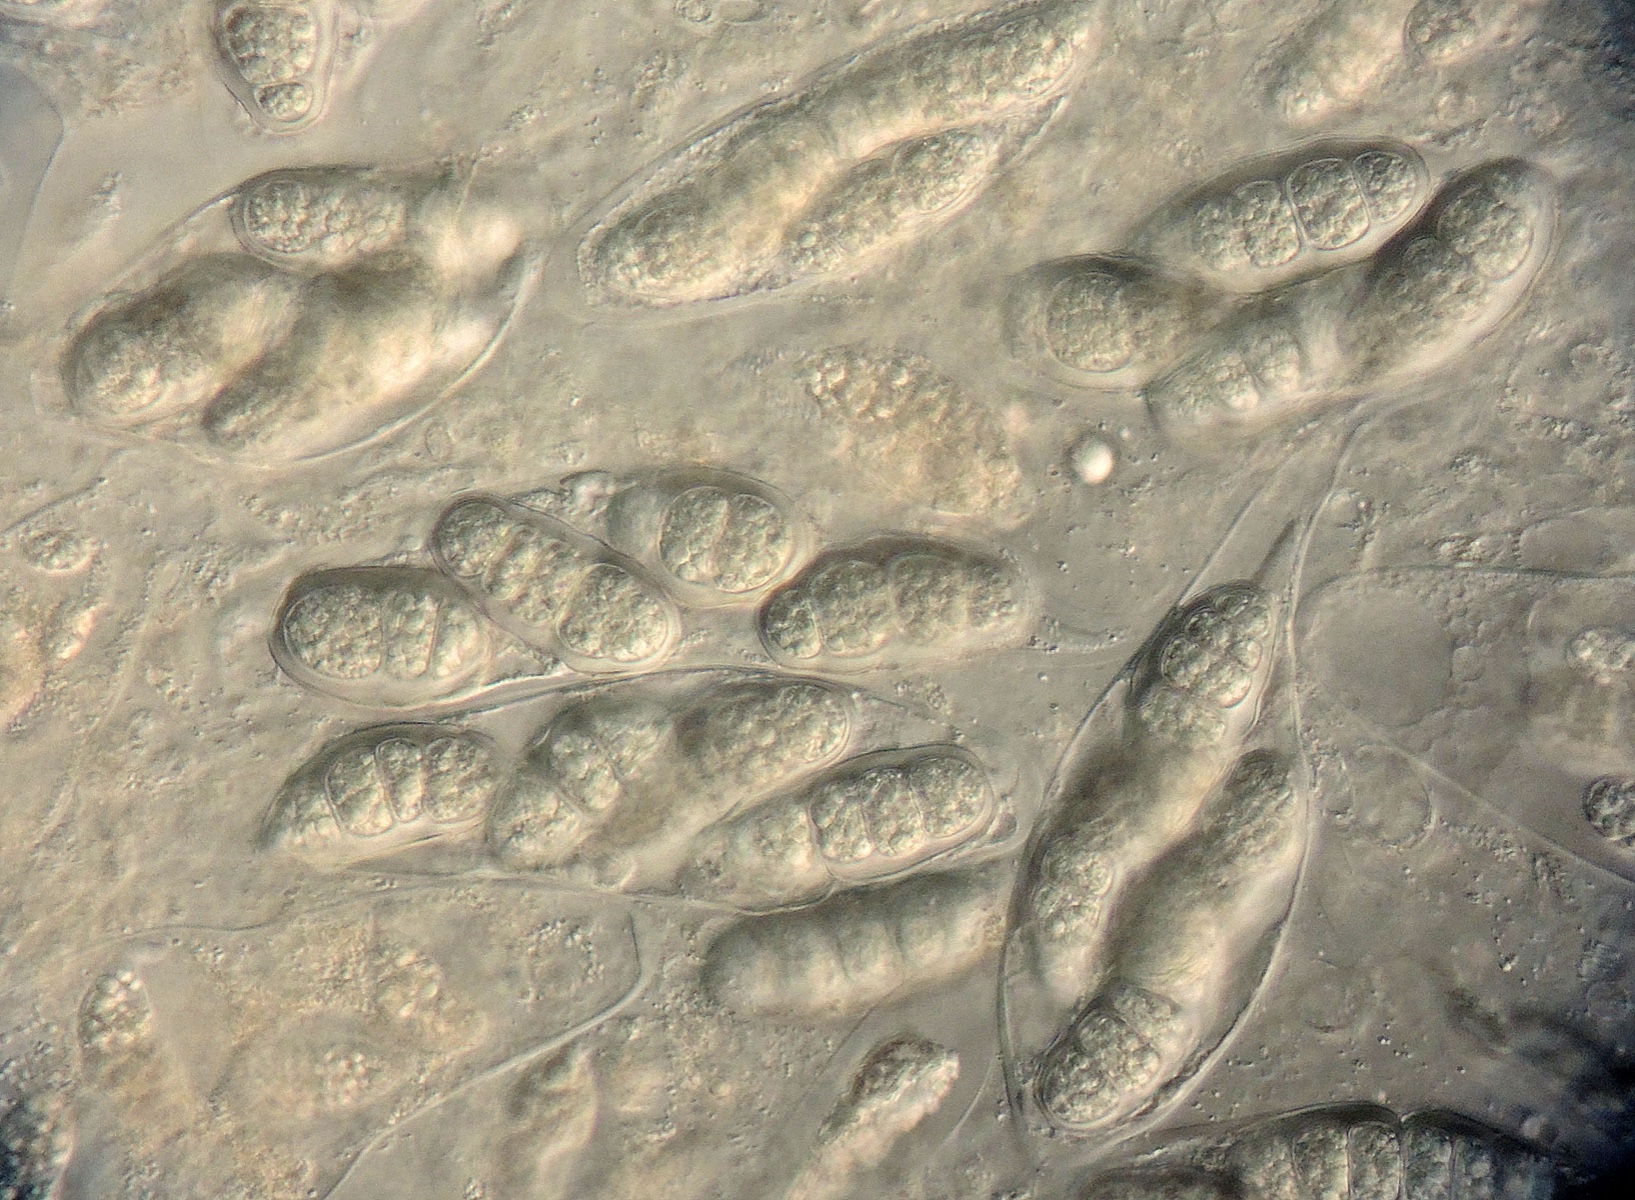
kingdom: Fungi
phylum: Ascomycota
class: Sordariomycetes
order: Diaporthales
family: Sydowiellaceae
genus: Hapalocystis
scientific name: Hapalocystis kickxii
